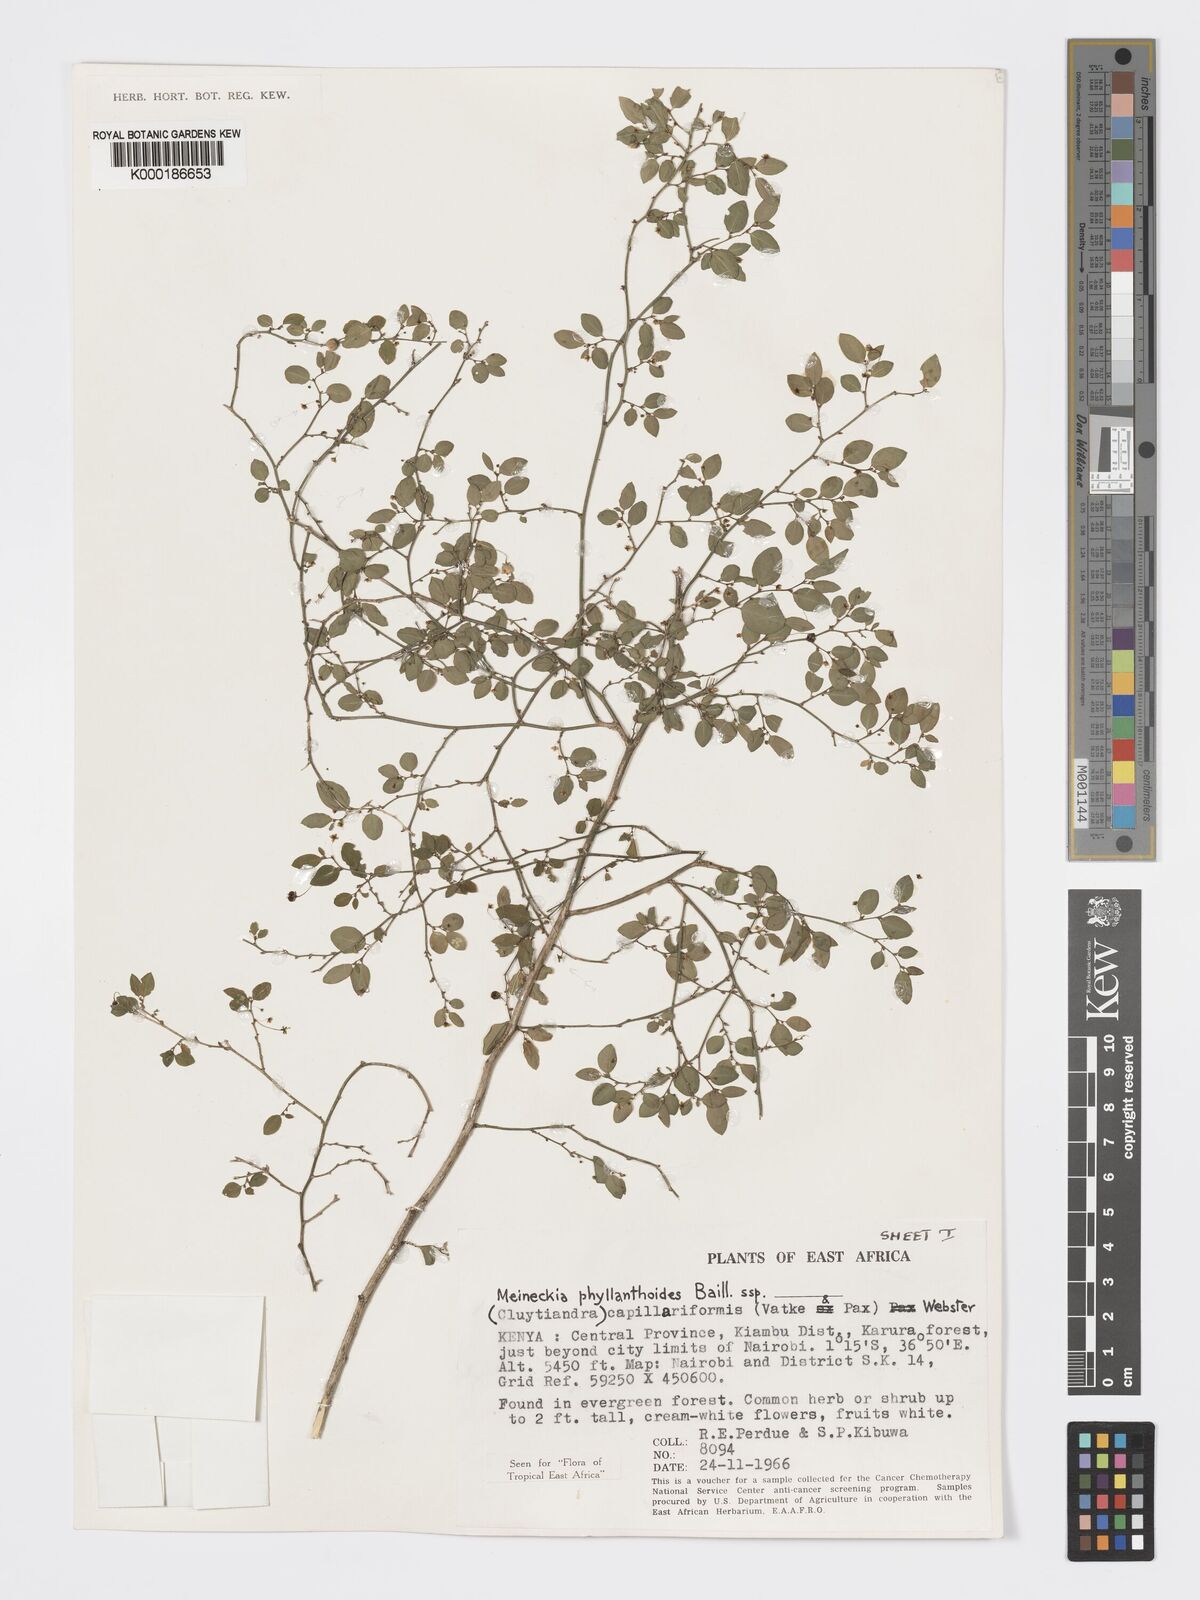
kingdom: Plantae
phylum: Tracheophyta
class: Magnoliopsida
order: Malpighiales
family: Phyllanthaceae
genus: Meineckia
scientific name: Meineckia phyllanthoides
